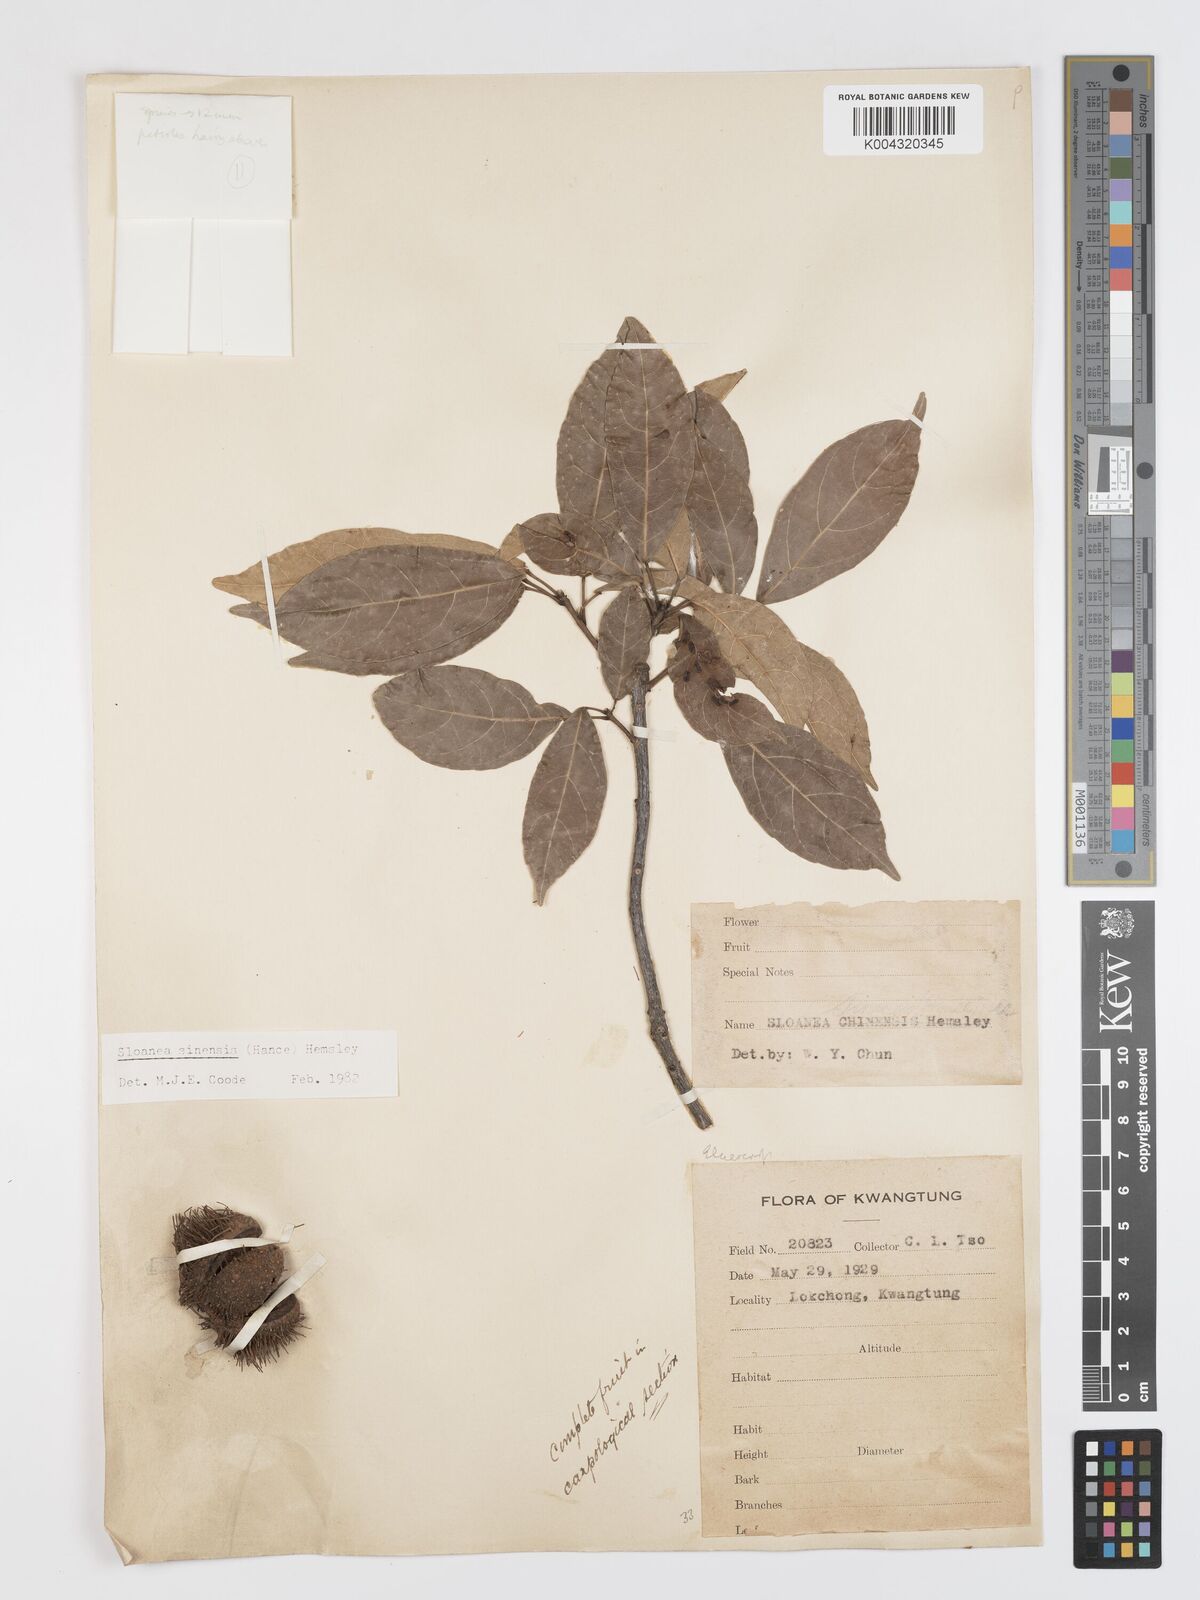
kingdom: Plantae
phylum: Tracheophyta
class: Magnoliopsida
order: Oxalidales
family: Elaeocarpaceae
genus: Sloanea
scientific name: Sloanea sinensis
